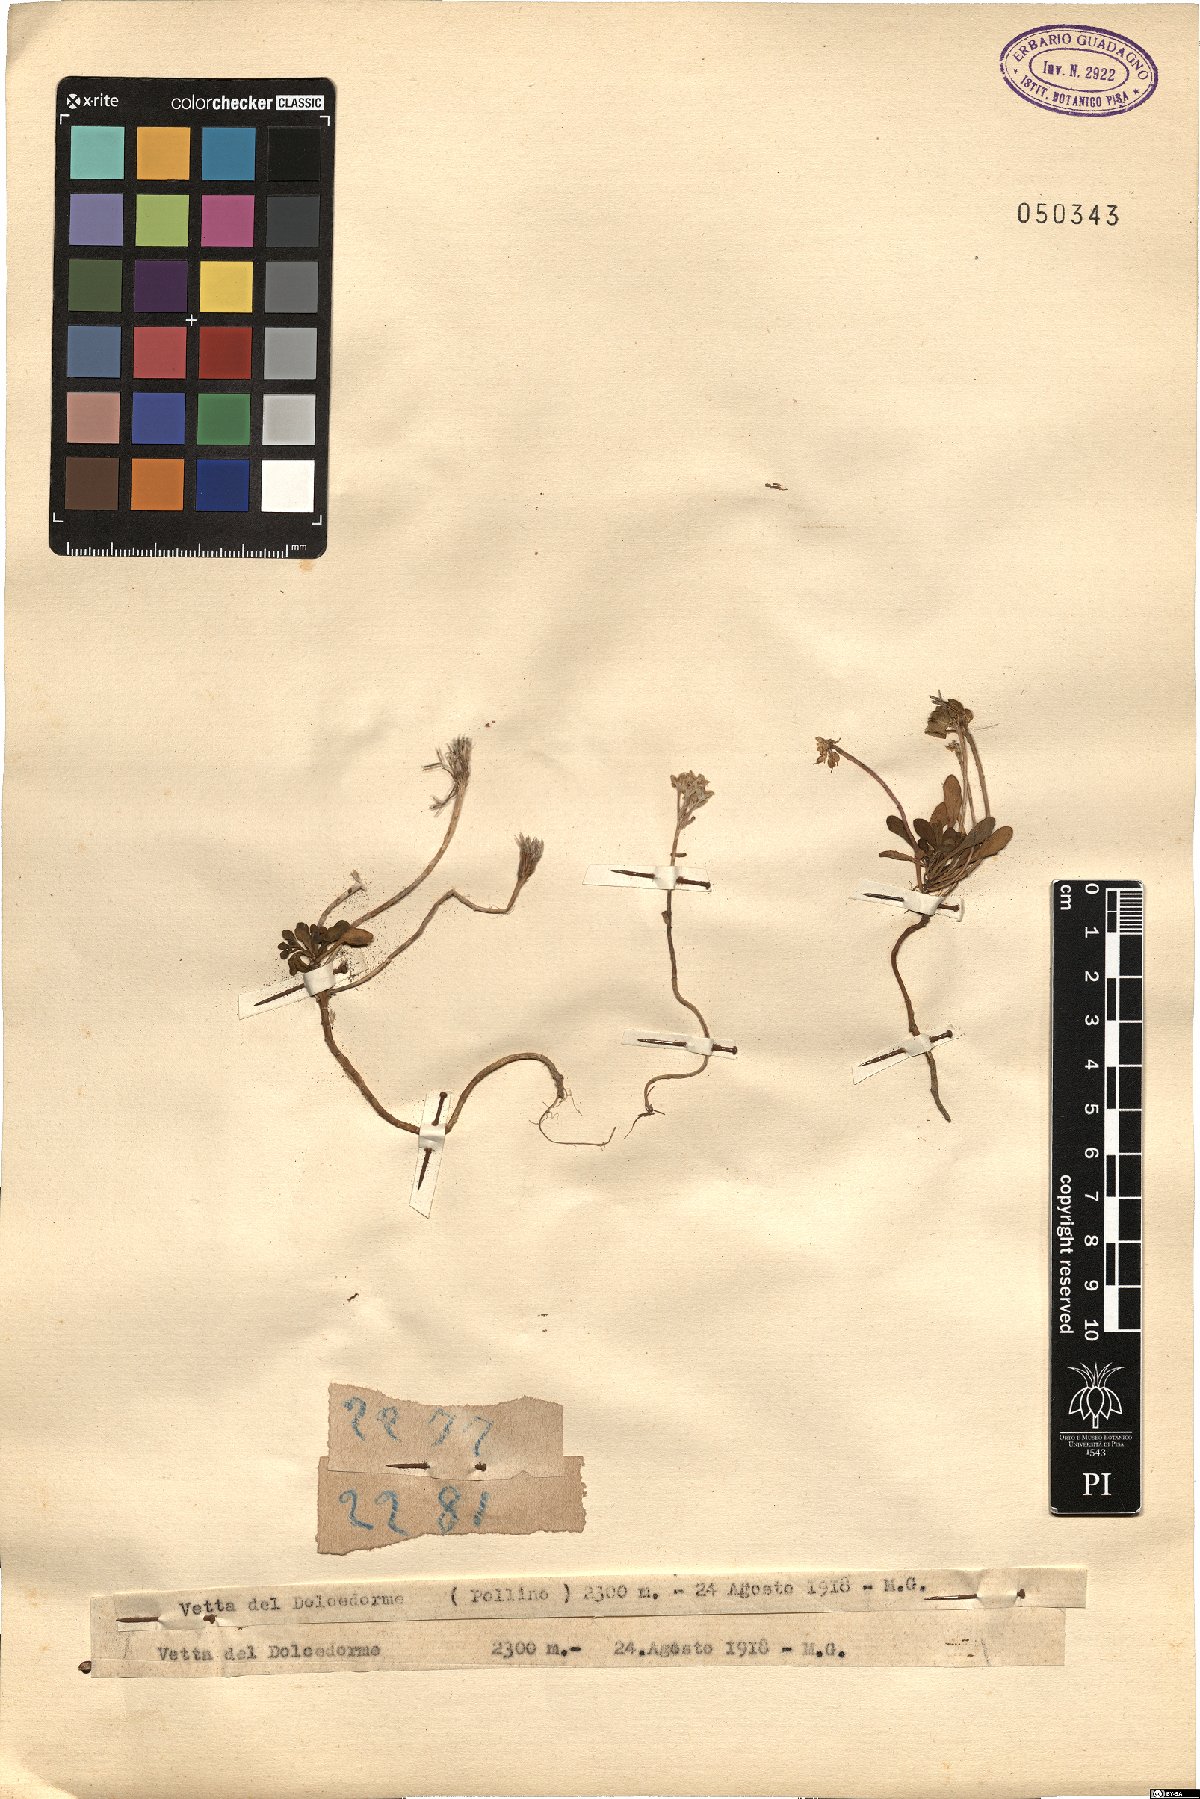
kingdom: Plantae
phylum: Tracheophyta
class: Magnoliopsida
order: Brassicales
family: Brassicaceae
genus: Iberis
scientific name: Iberis
